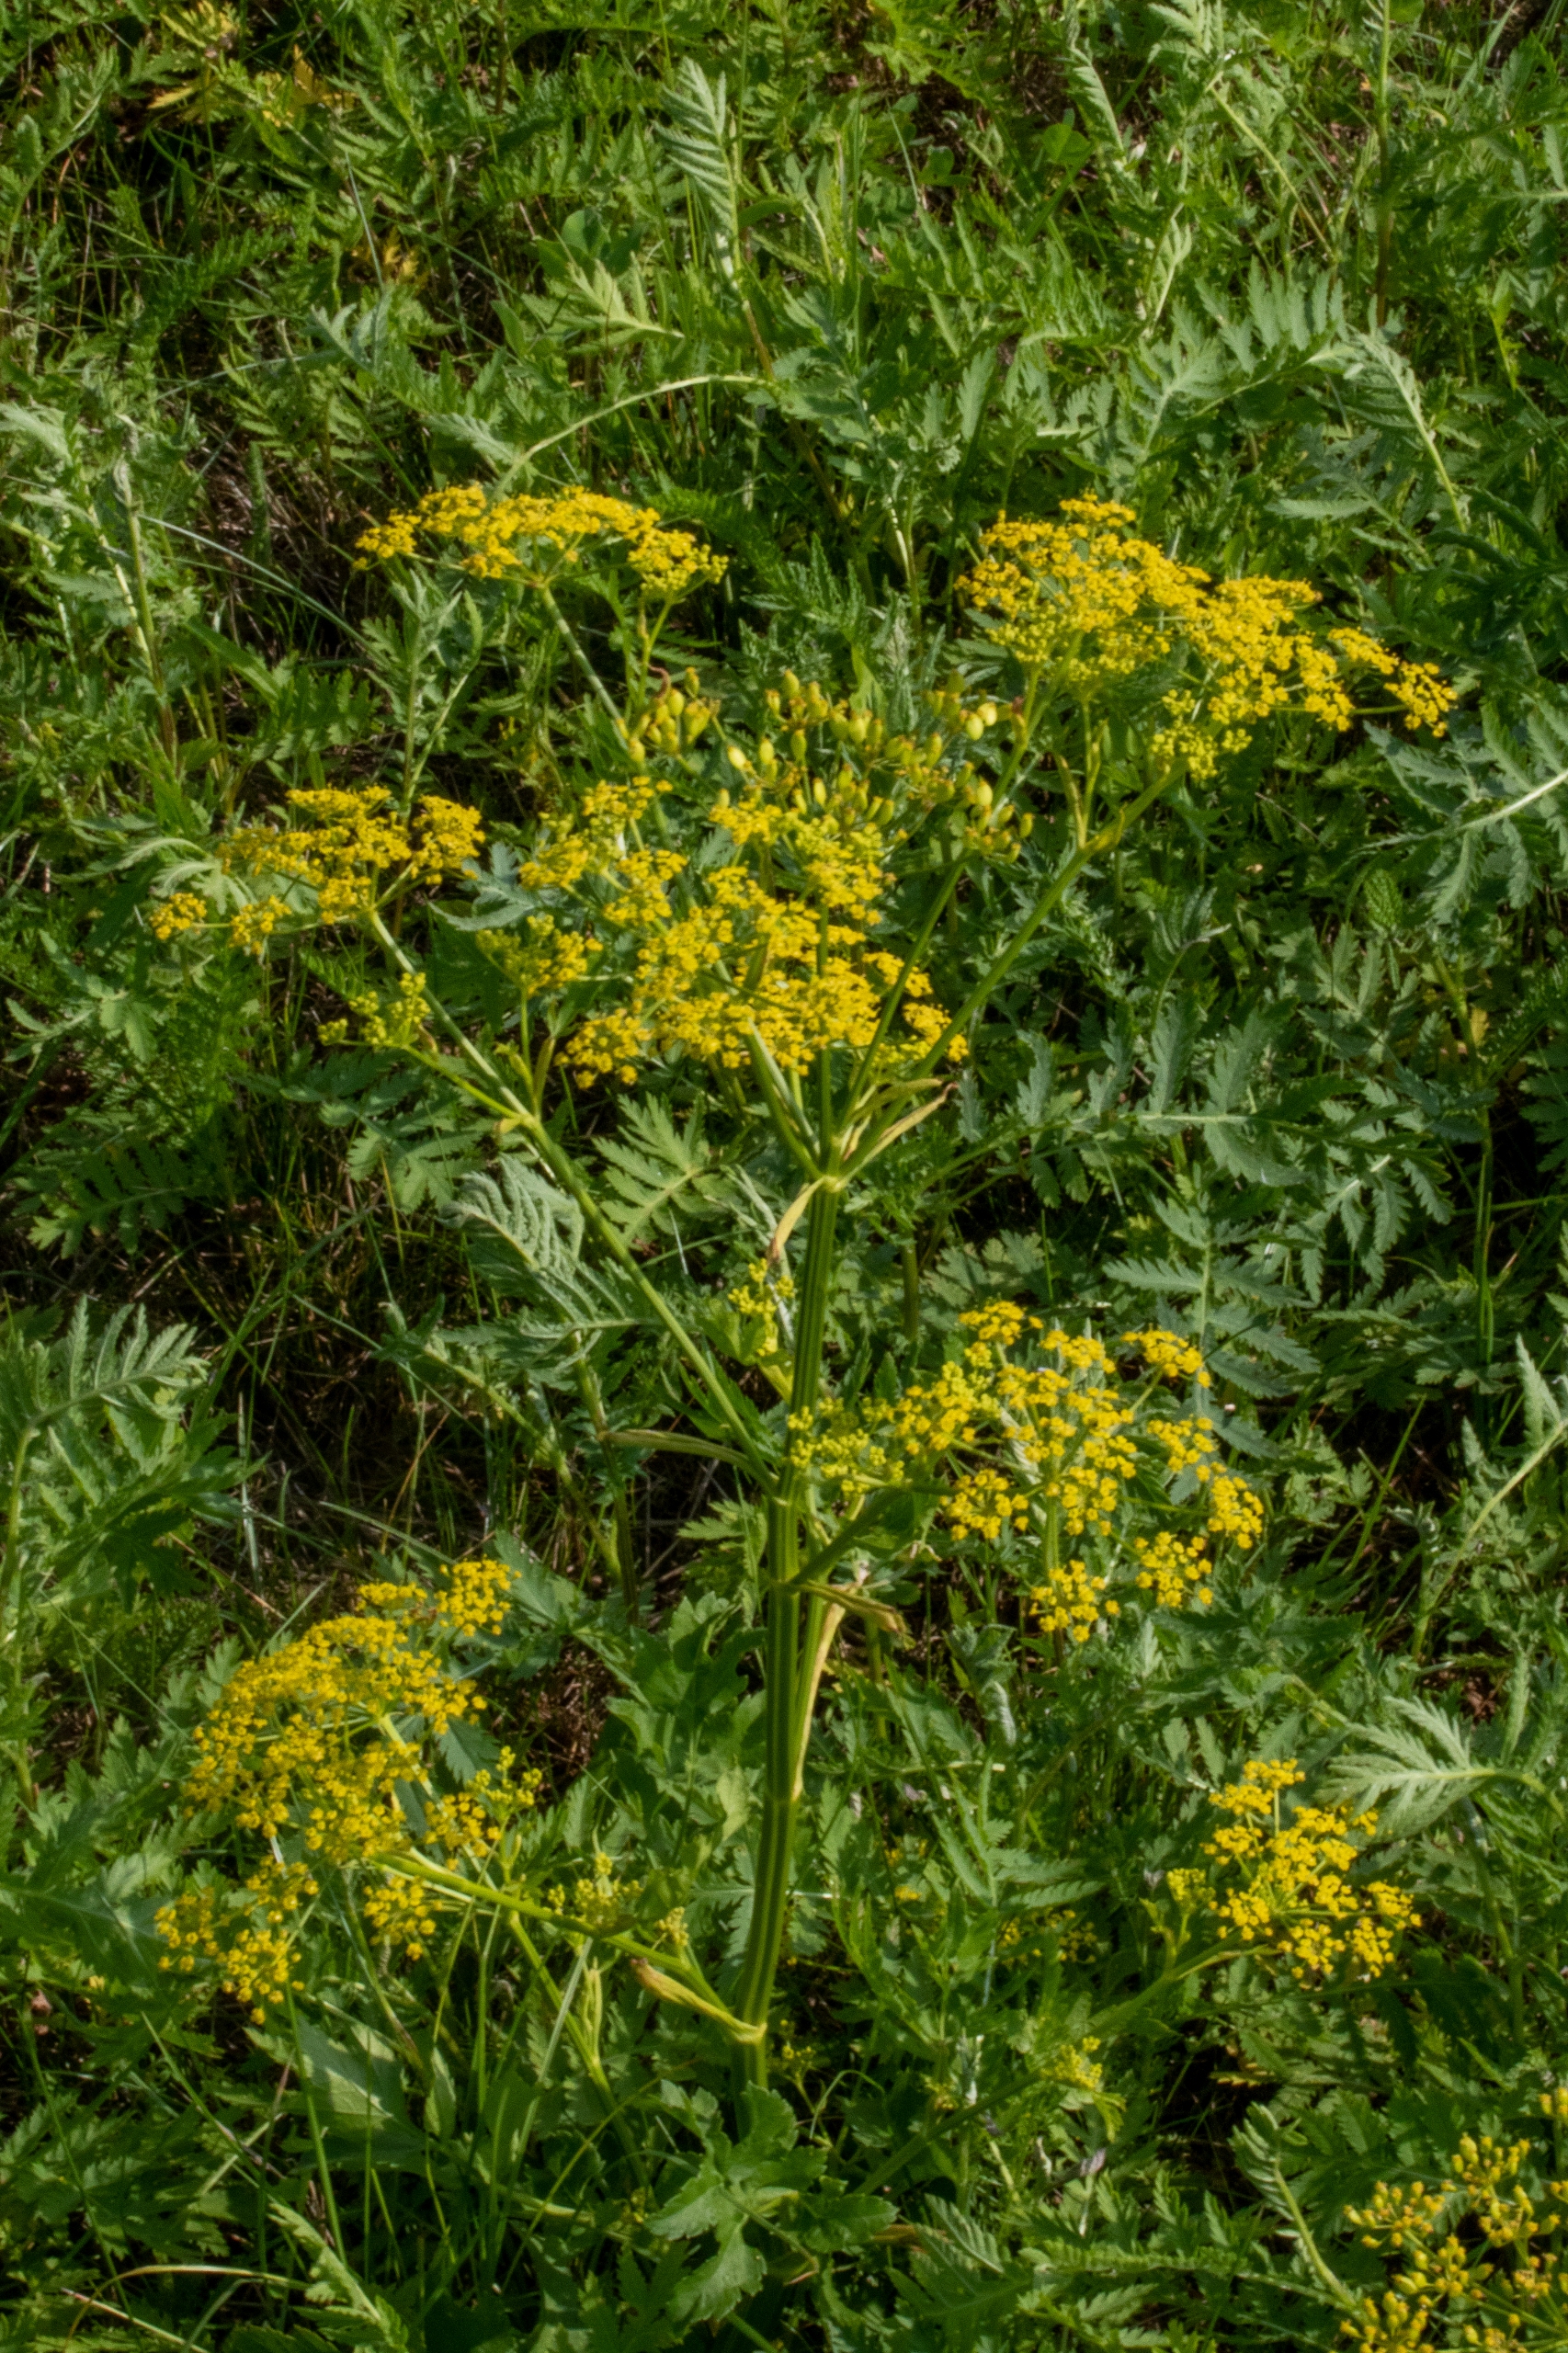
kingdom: Plantae
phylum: Tracheophyta
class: Magnoliopsida
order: Apiales
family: Apiaceae
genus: Pastinaca
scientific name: Pastinaca sativa
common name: Pastinak
